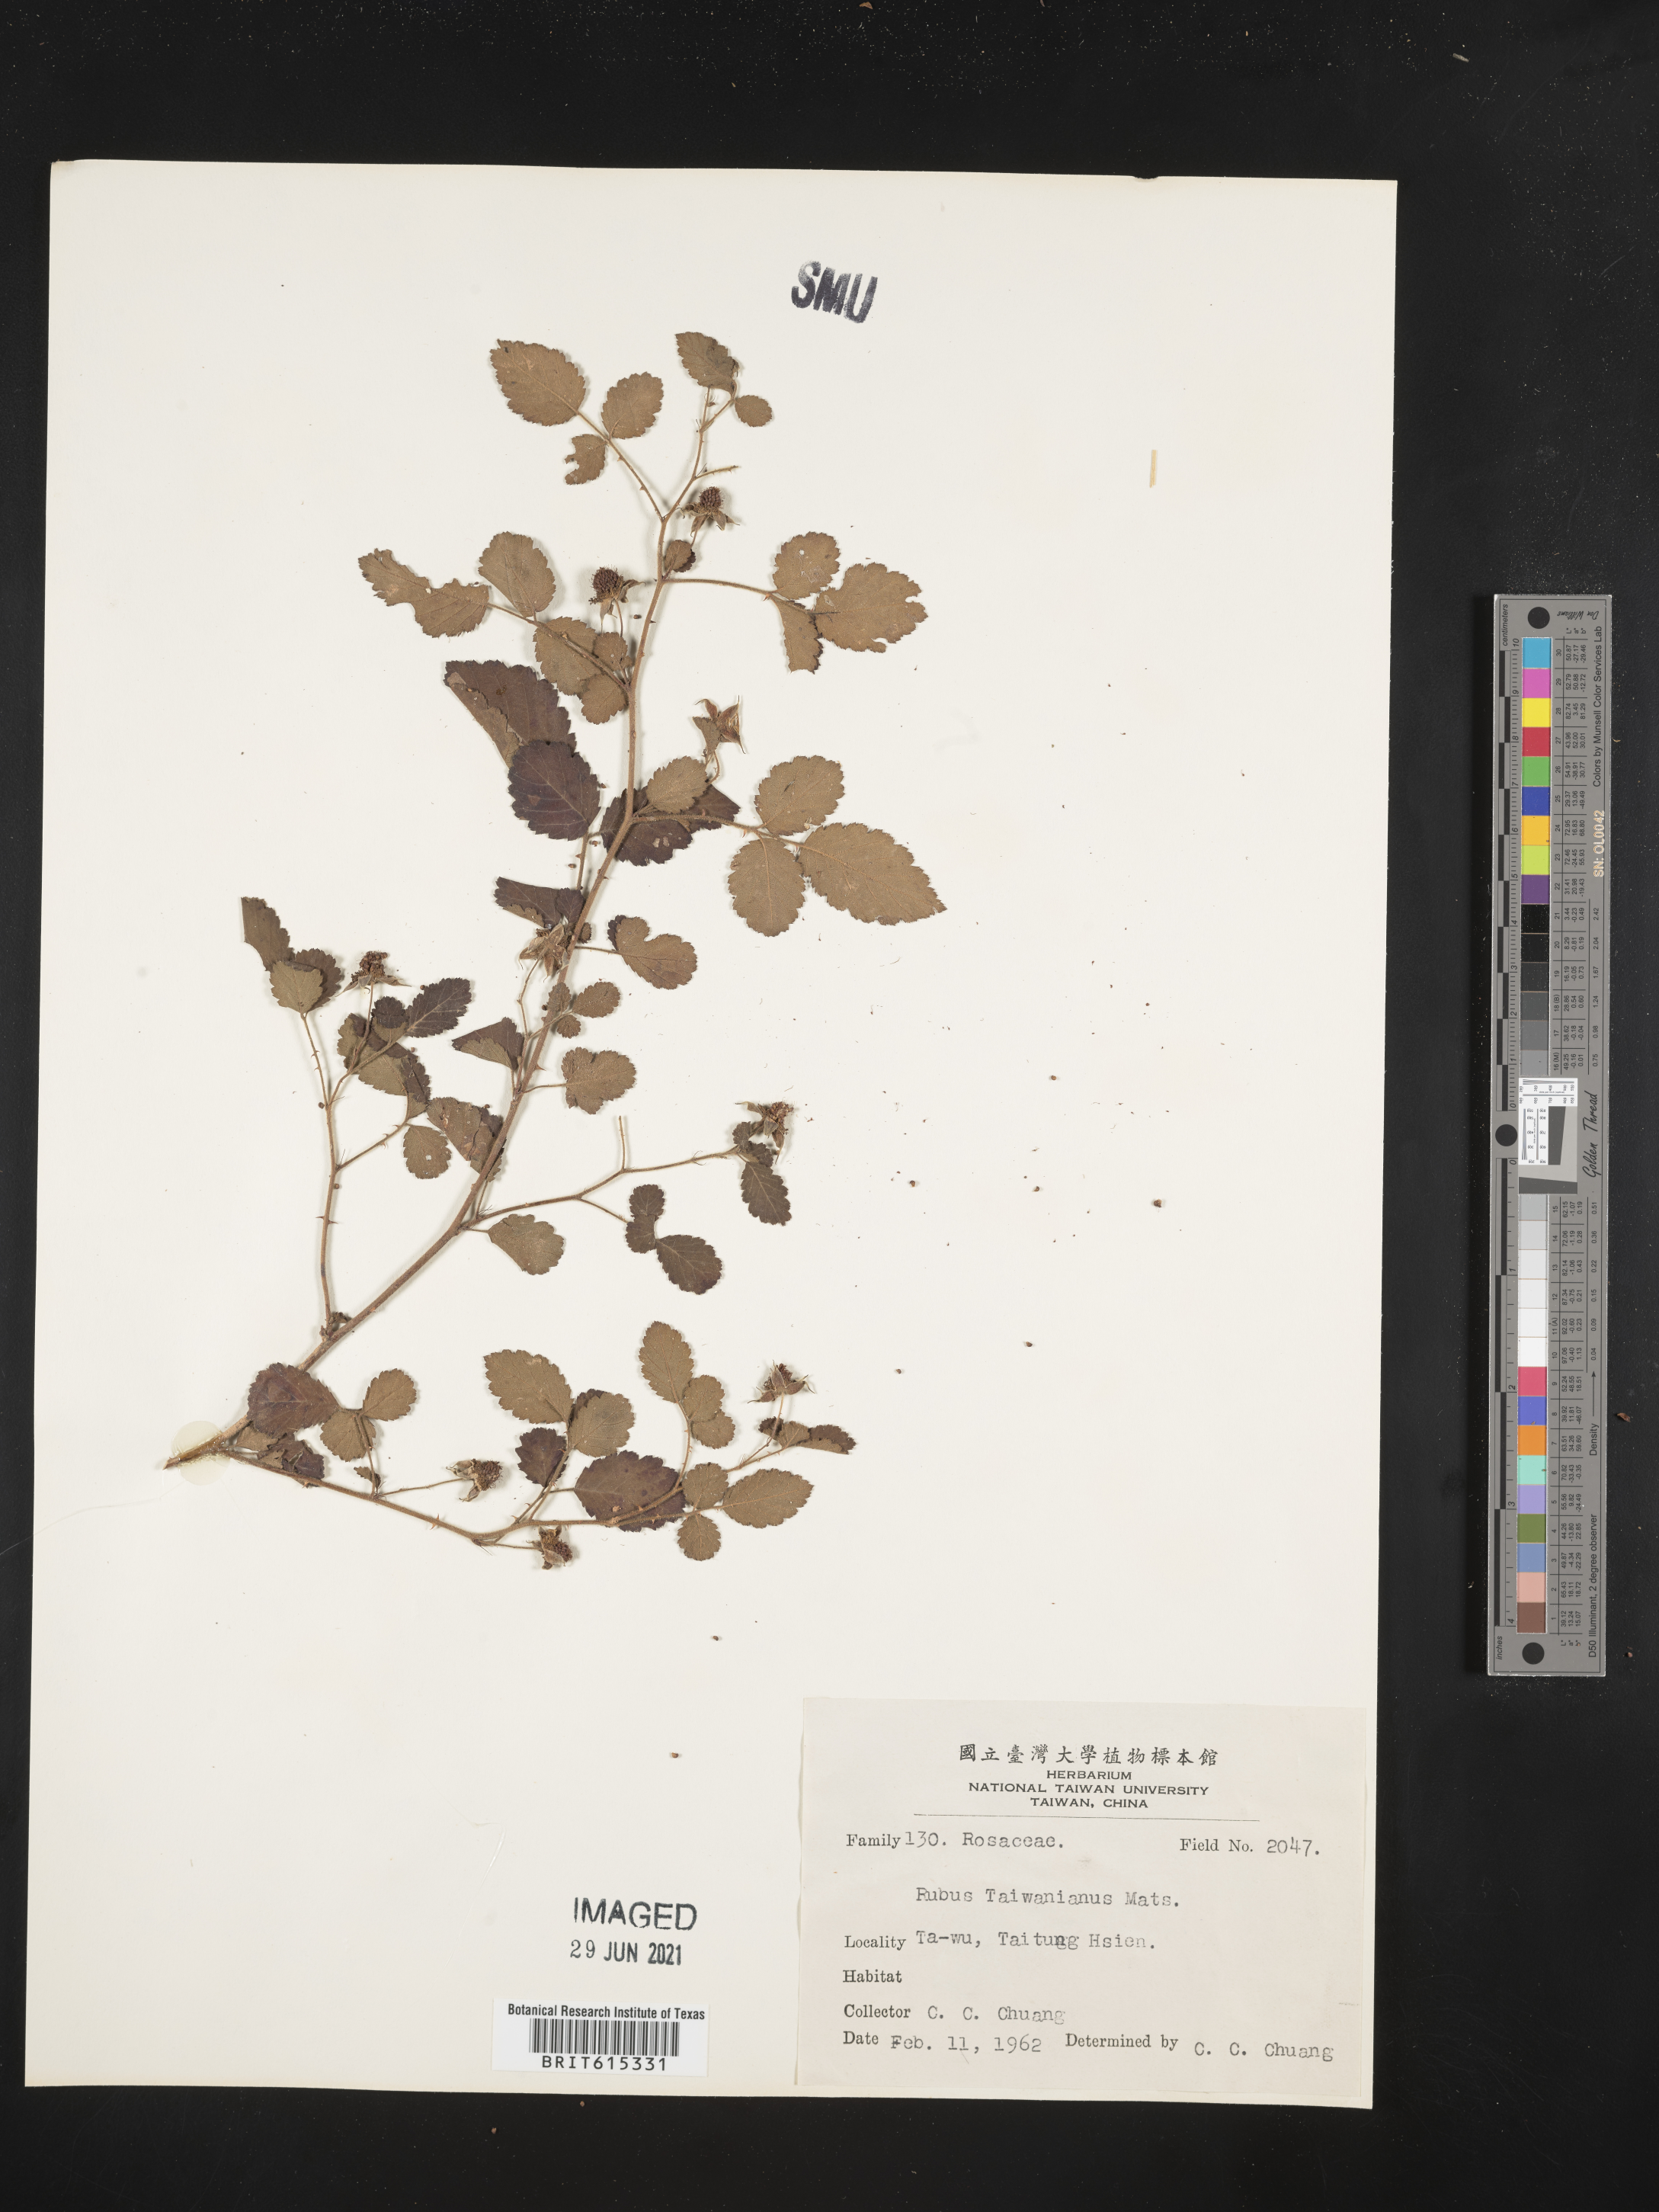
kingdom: Plantae
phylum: Tracheophyta
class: Magnoliopsida
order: Rosales
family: Rosaceae
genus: Rubus
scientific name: Rubus rosifolius
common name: Roseleaf raspberry
